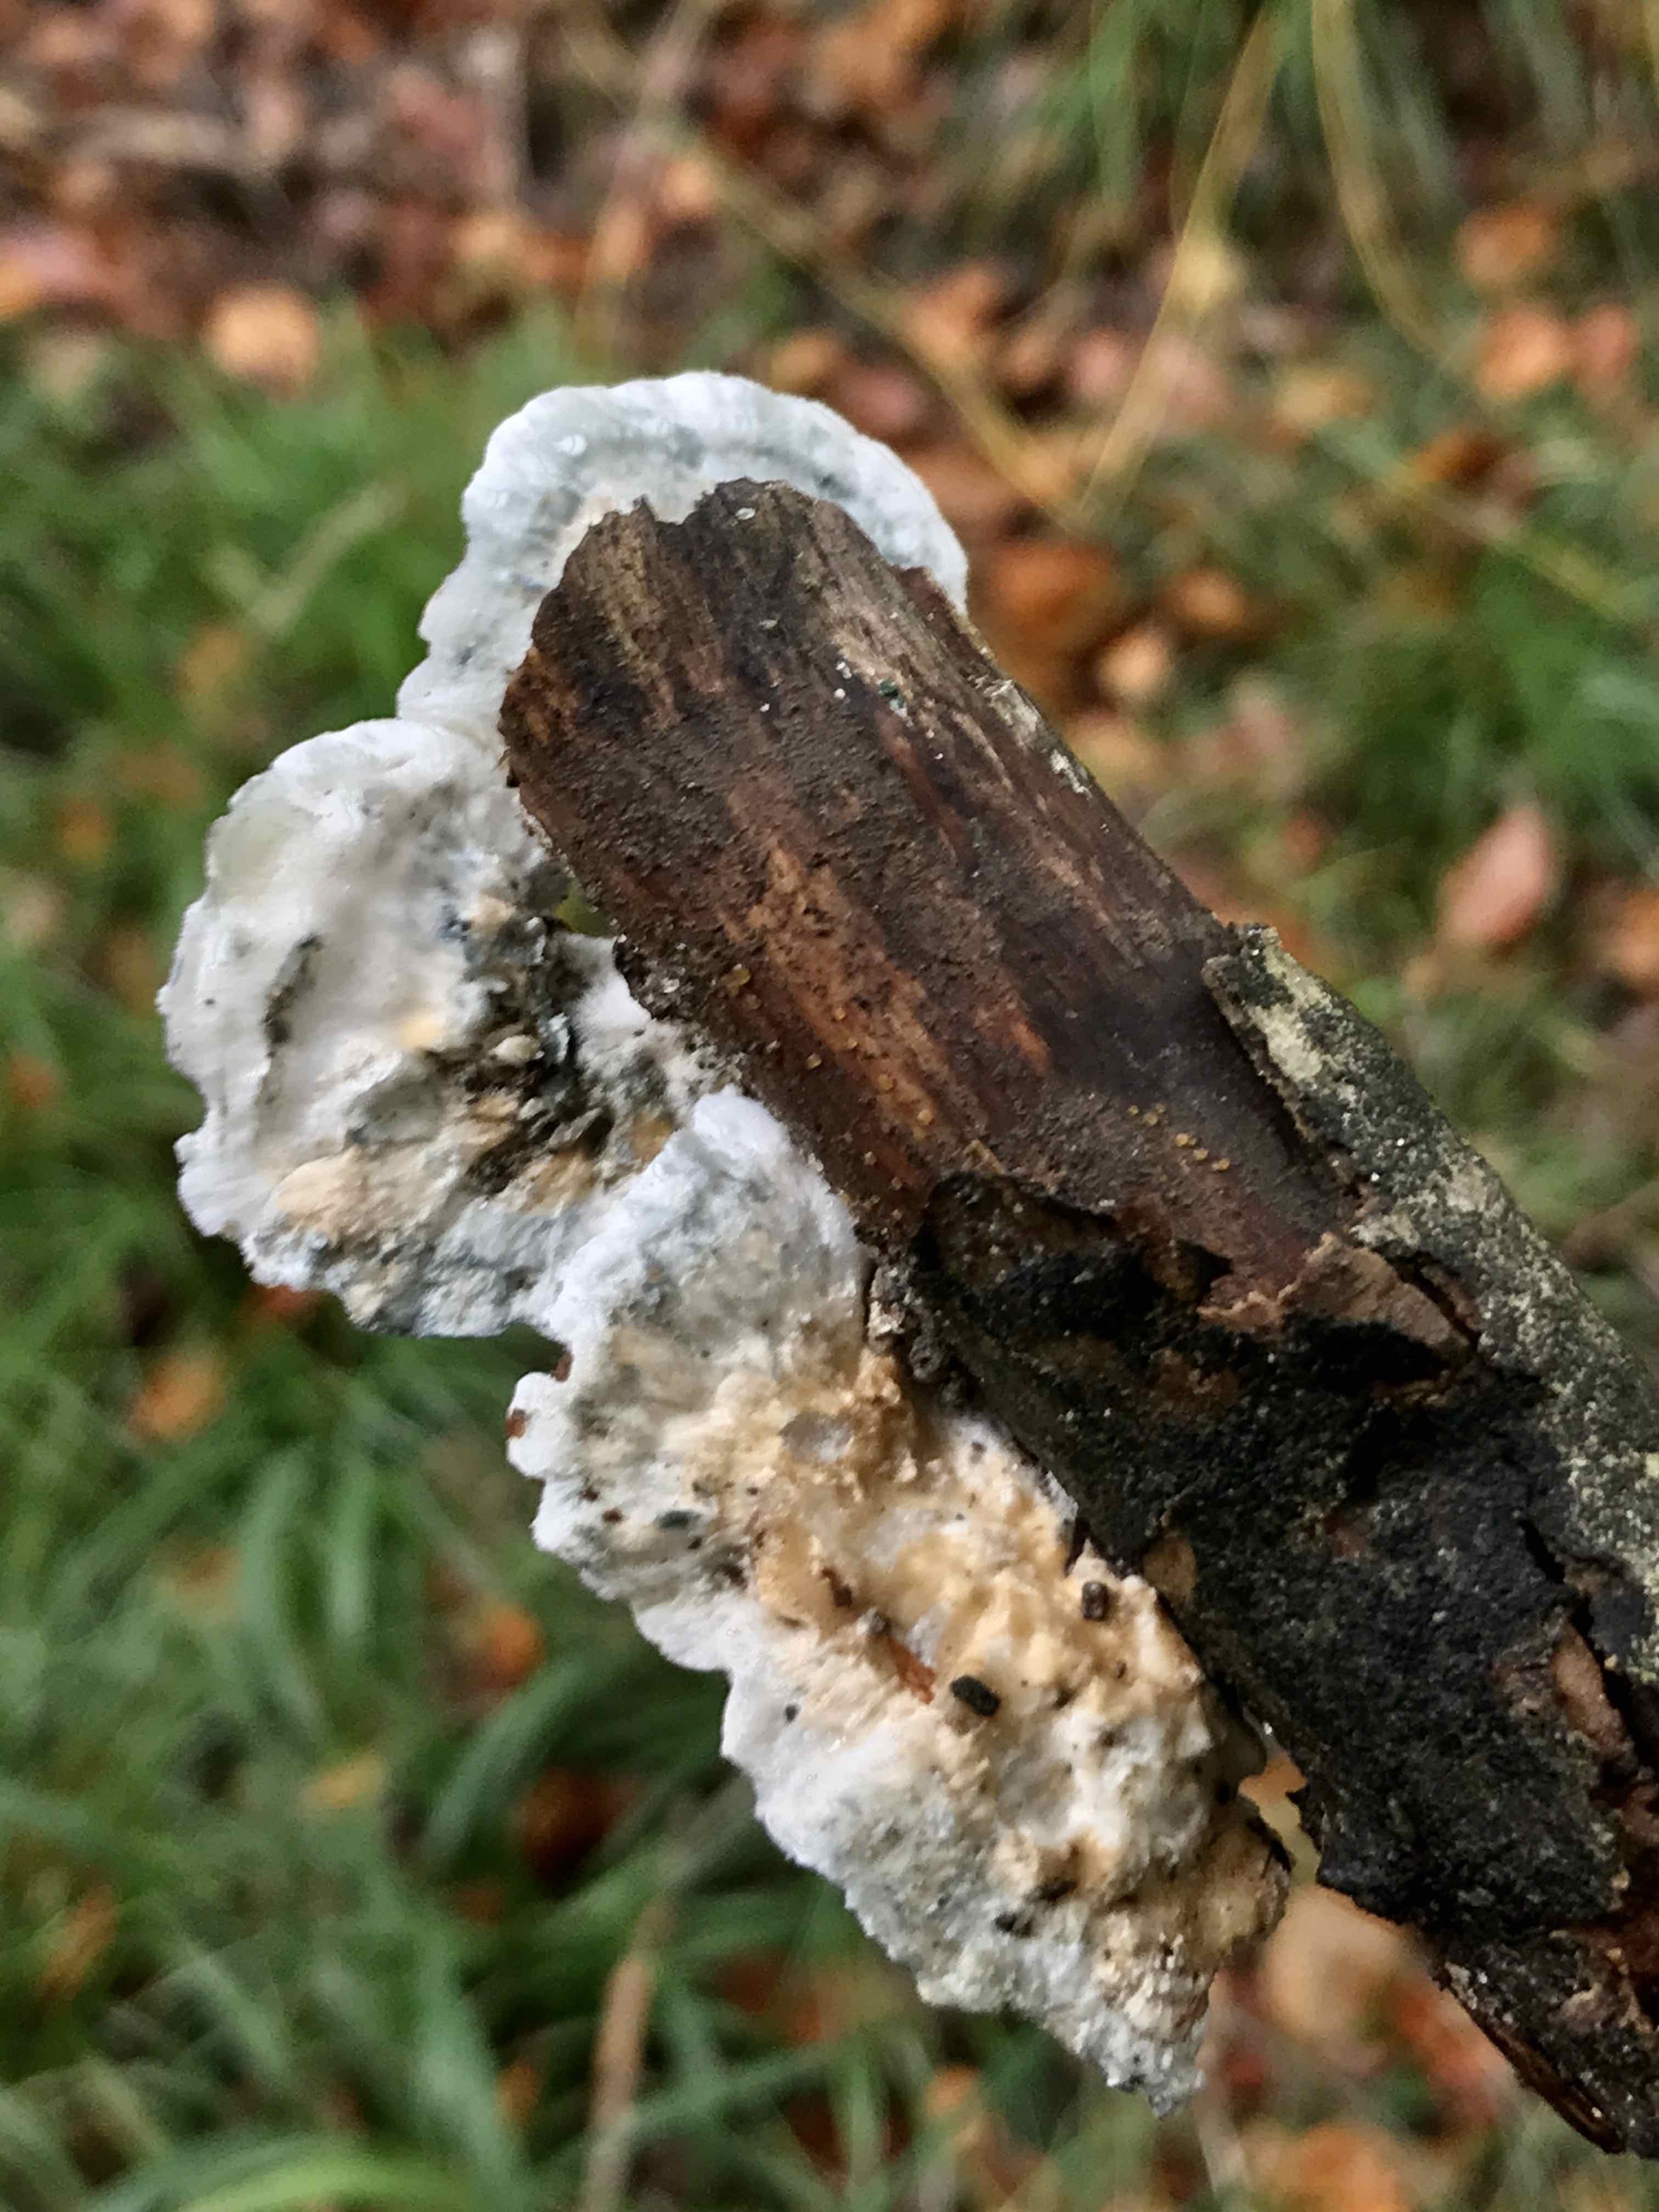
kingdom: Fungi
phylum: Basidiomycota
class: Agaricomycetes
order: Polyporales
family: Polyporaceae
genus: Cyanosporus
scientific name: Cyanosporus caesius
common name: blålig kødporesvamp
